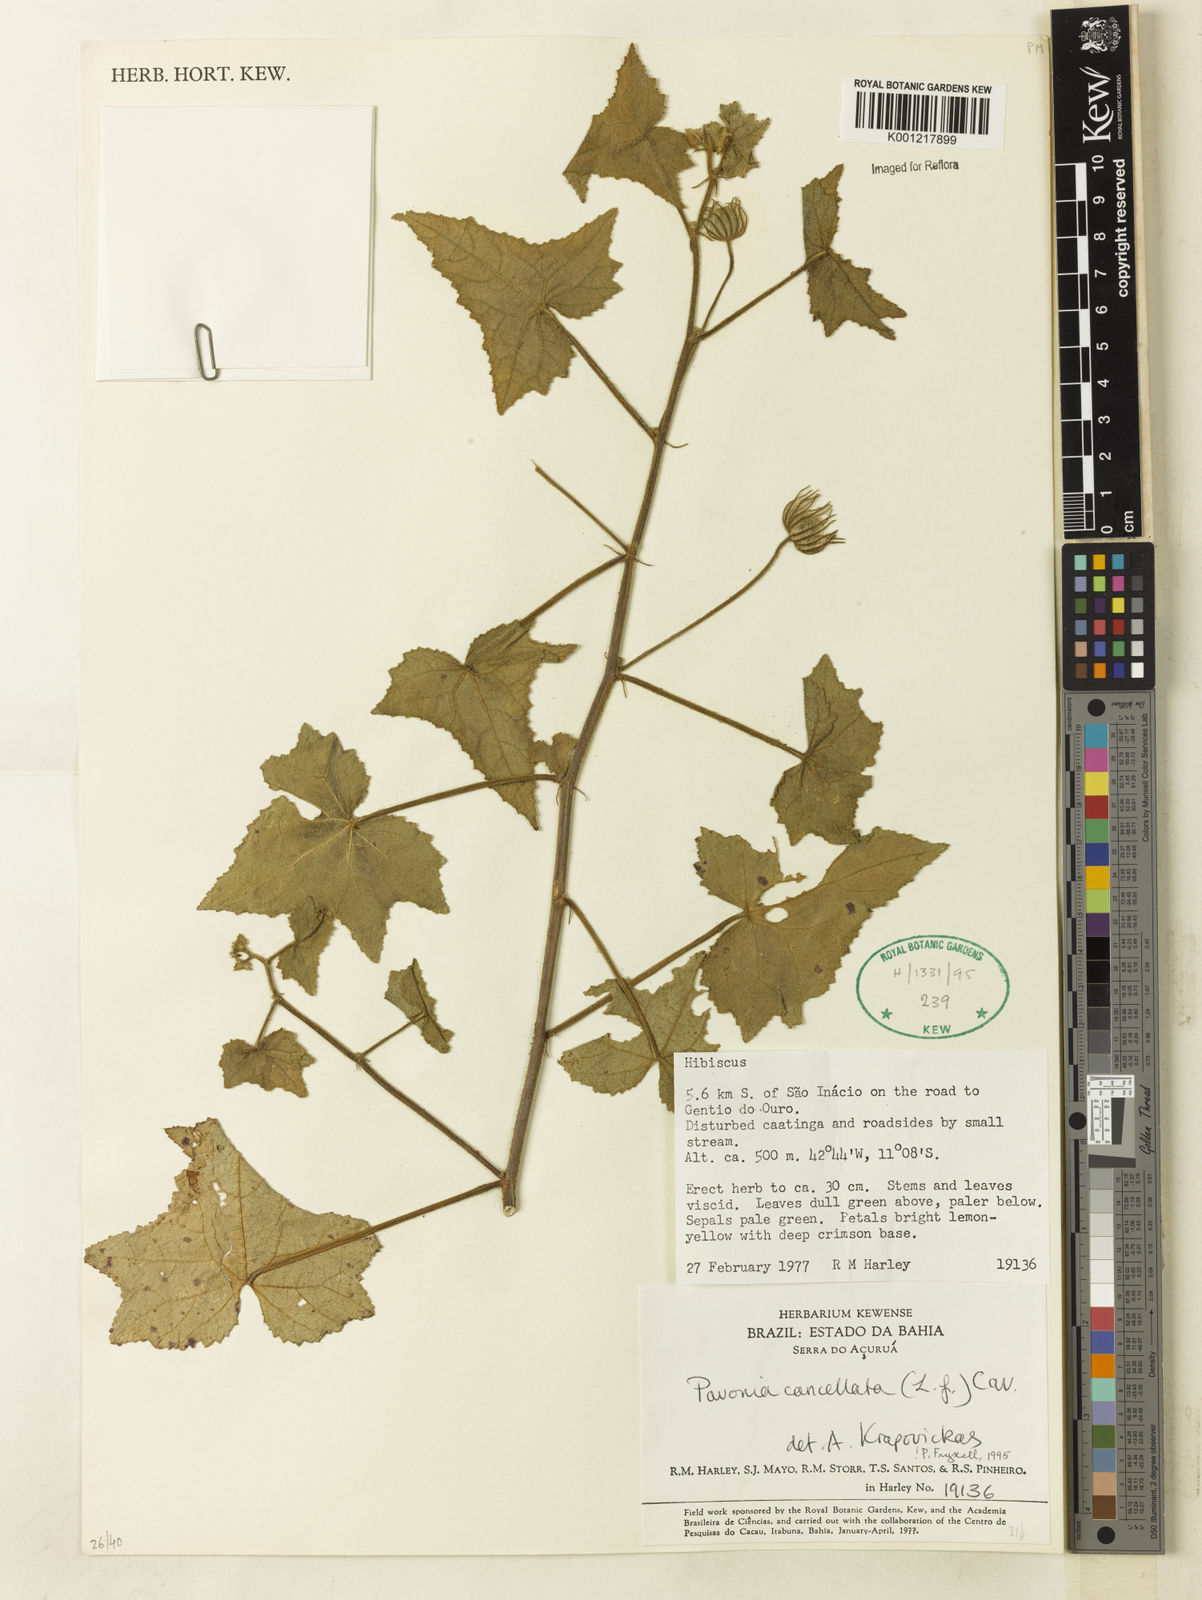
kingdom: Plantae
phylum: Tracheophyta
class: Magnoliopsida
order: Malvales
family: Malvaceae
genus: Pavonia
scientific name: Pavonia cancellata
